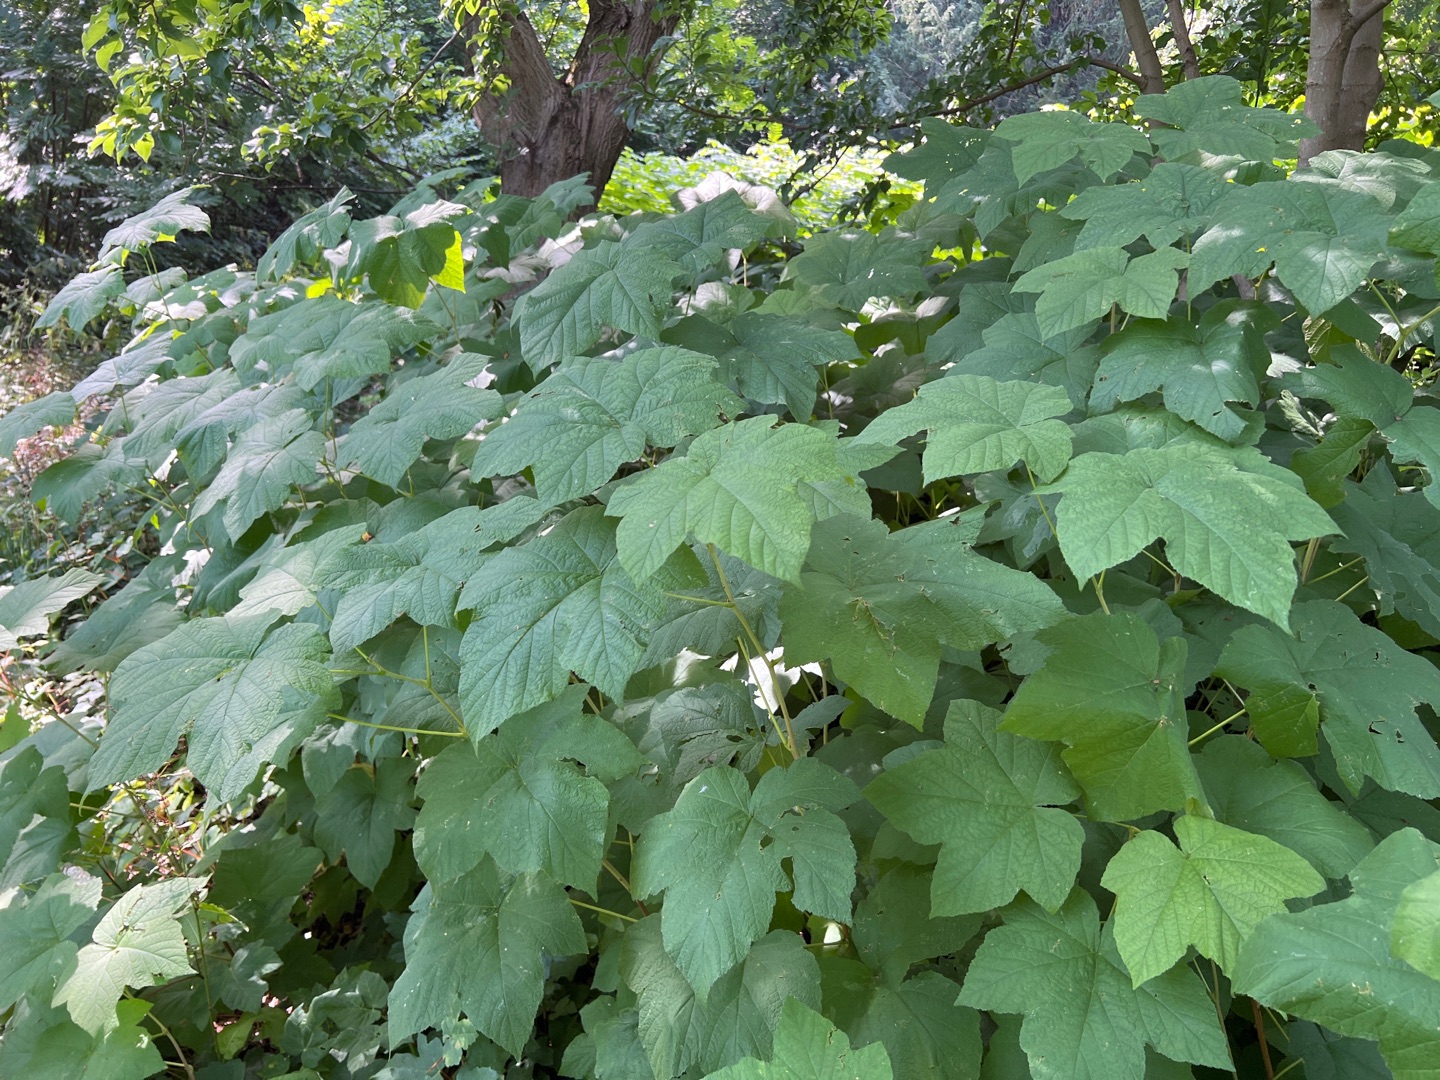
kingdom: Plantae
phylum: Tracheophyta
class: Magnoliopsida
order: Rosales
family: Rosaceae
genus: Rubus
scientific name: Rubus nutkanus
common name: Nukta-brombær
